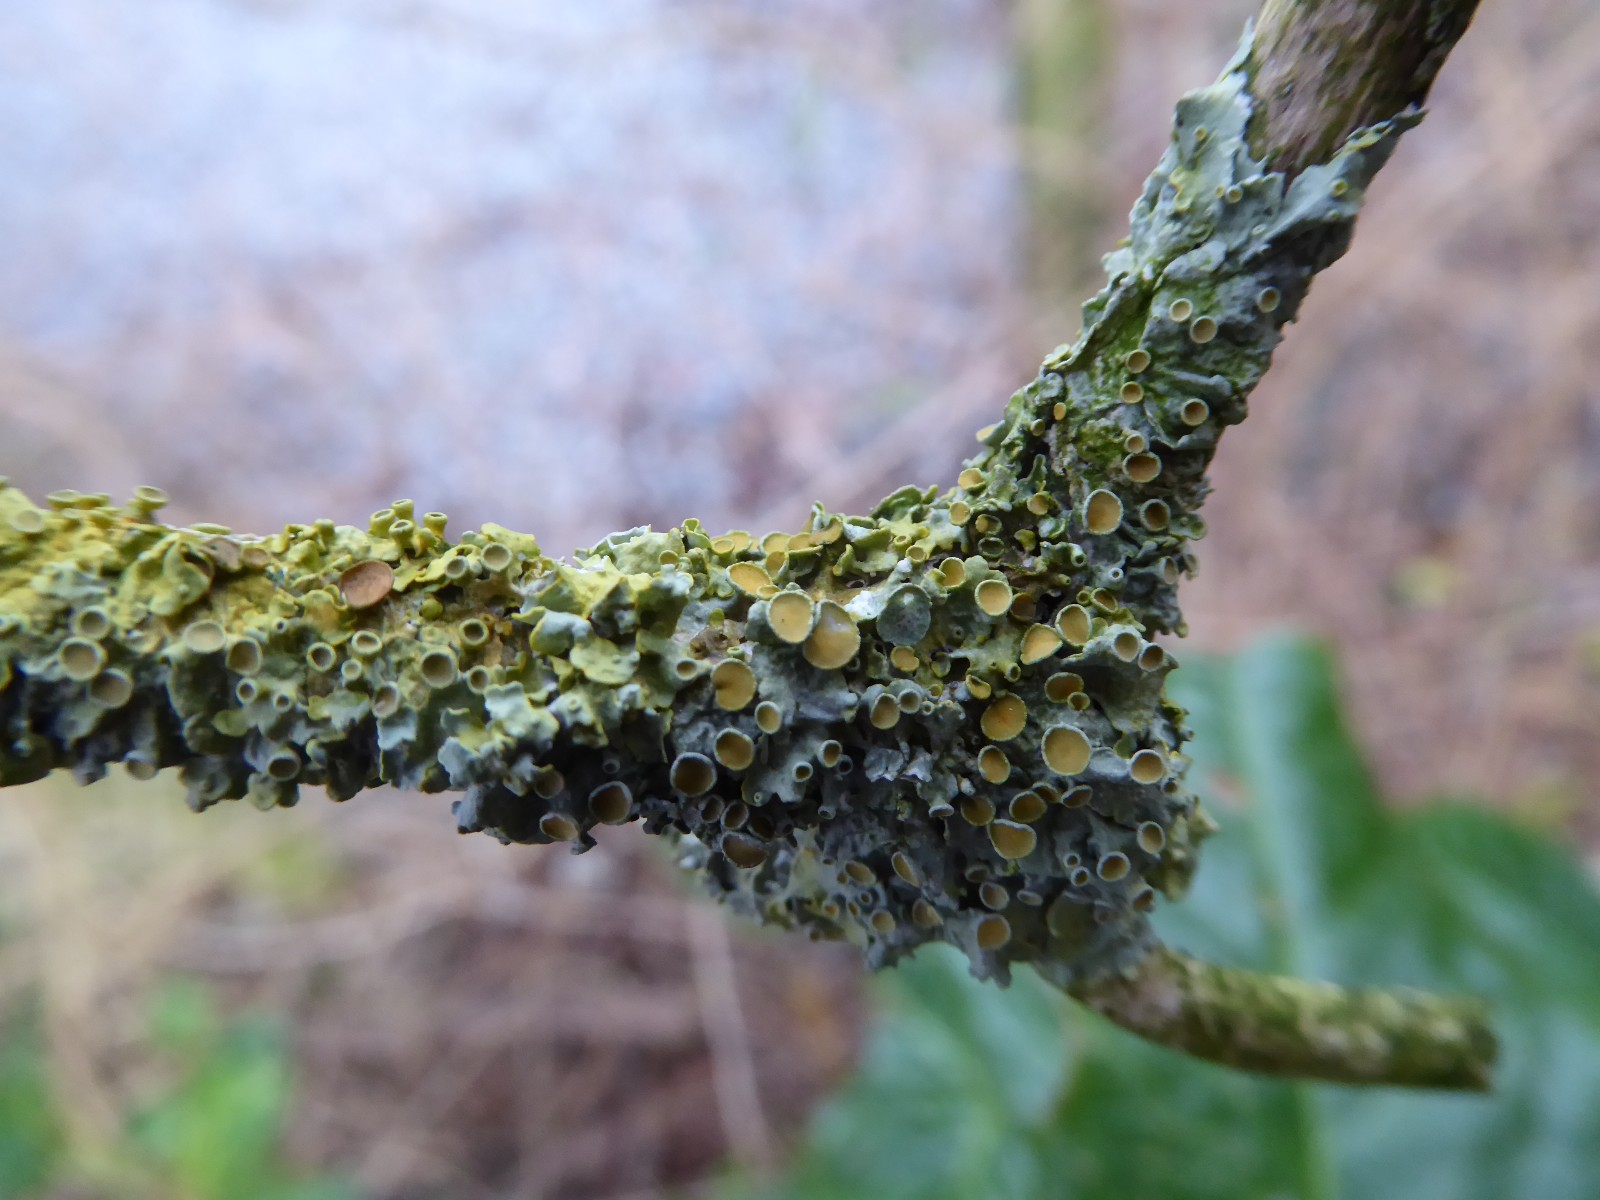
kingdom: Fungi
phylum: Ascomycota
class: Lecanoromycetes
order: Teloschistales
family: Teloschistaceae
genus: Xanthoria
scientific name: Xanthoria parietina
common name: almindelig væggelav
